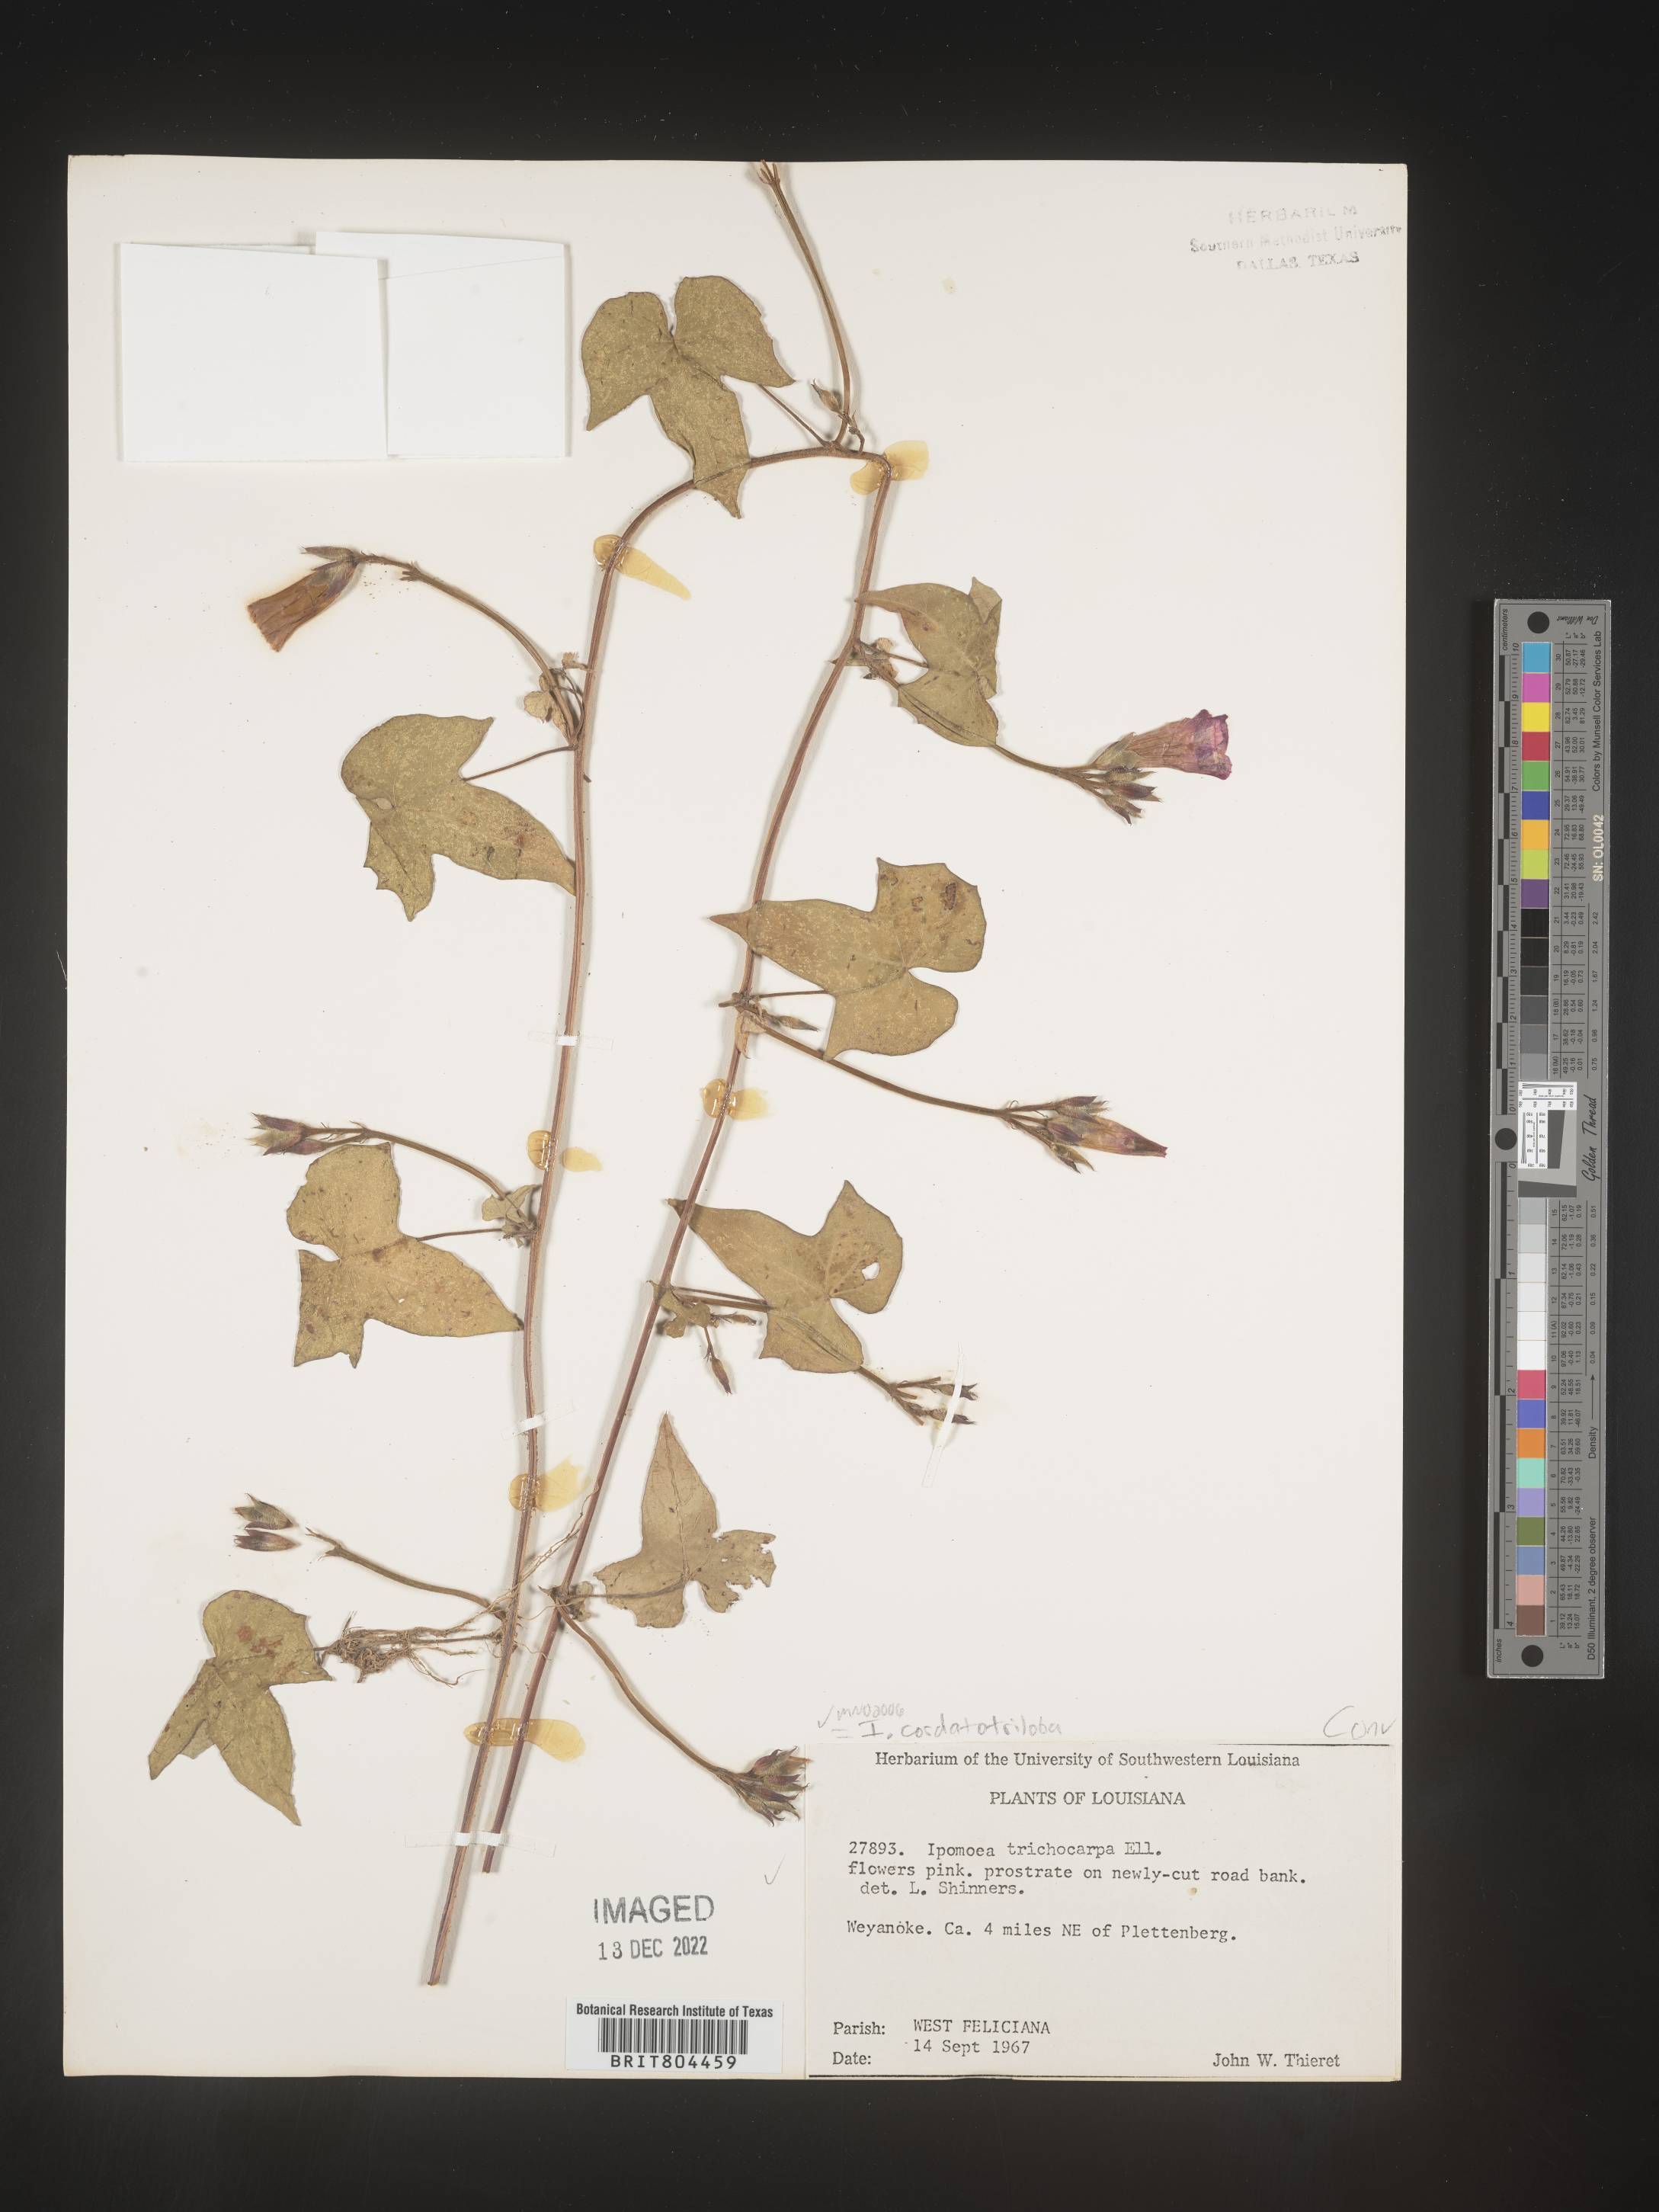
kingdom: Plantae
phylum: Tracheophyta
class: Magnoliopsida
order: Solanales
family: Convolvulaceae
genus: Ipomoea
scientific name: Ipomoea cordatotriloba
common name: Cotton morning glory
